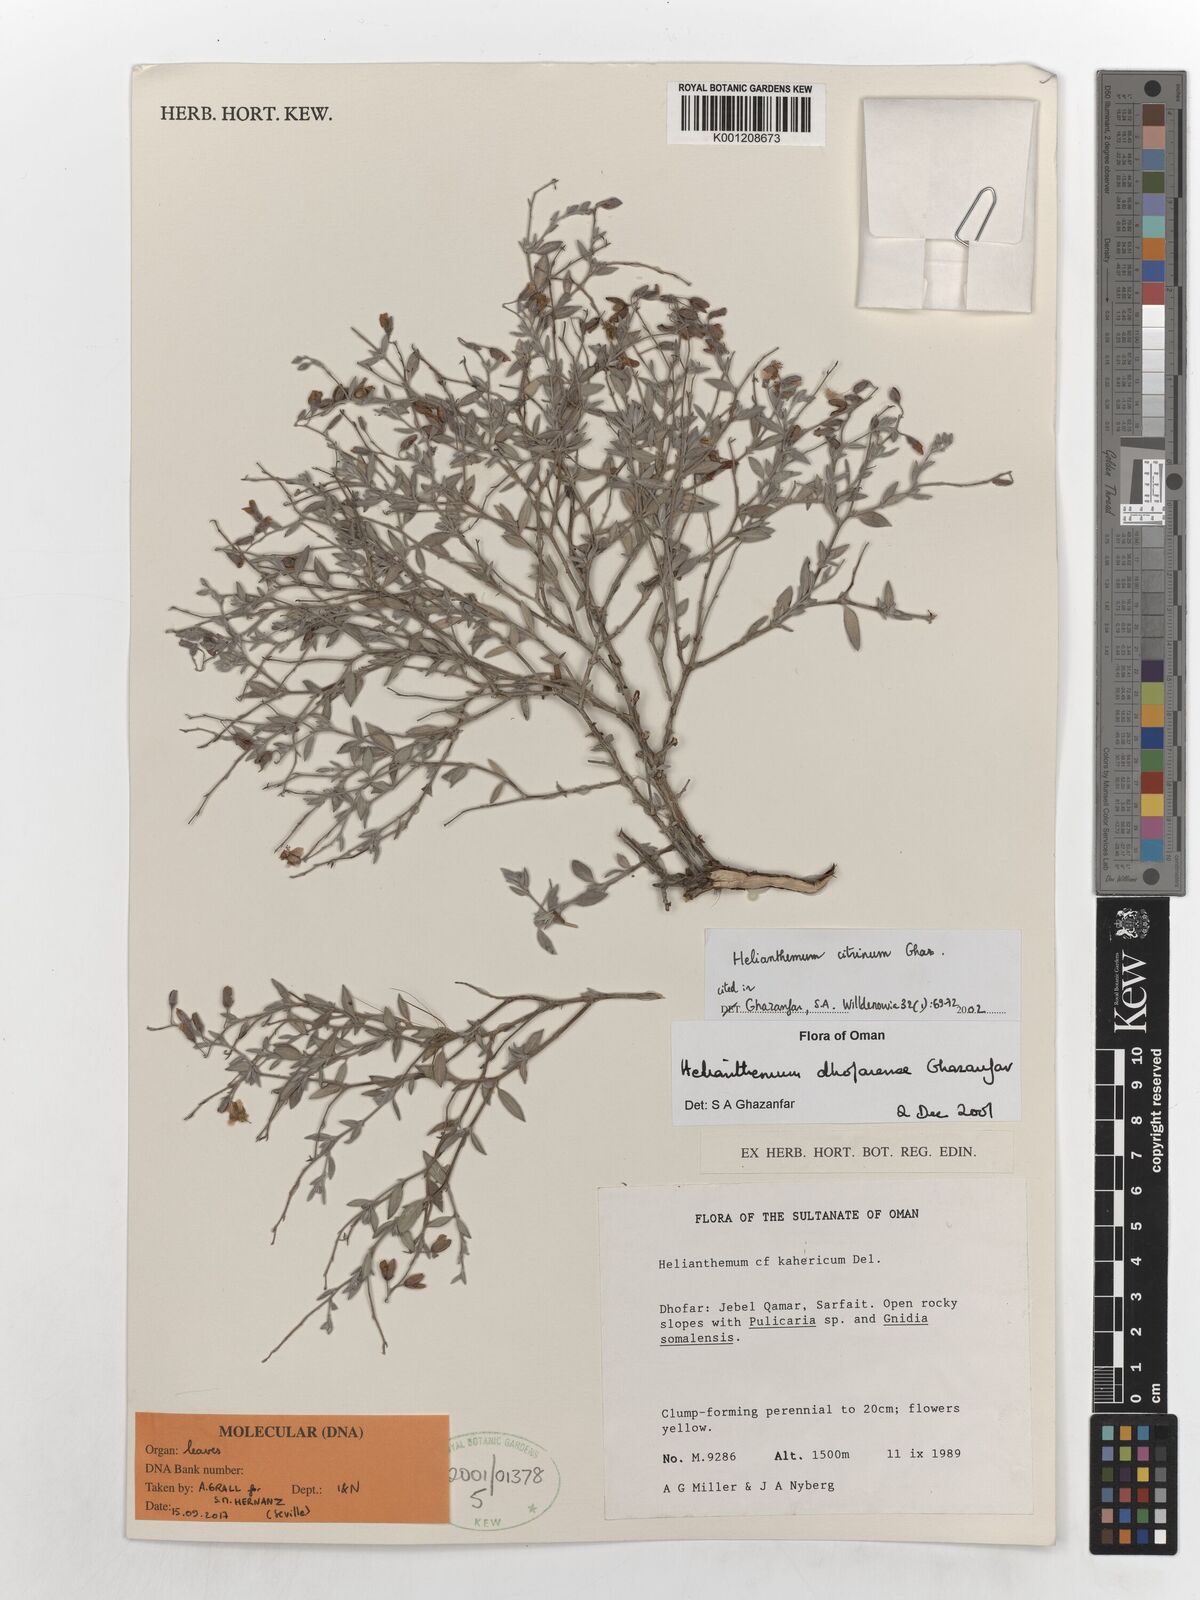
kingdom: Plantae
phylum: Tracheophyta
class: Magnoliopsida
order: Malvales
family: Cistaceae
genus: Helianthemum
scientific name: Helianthemum citrinum
